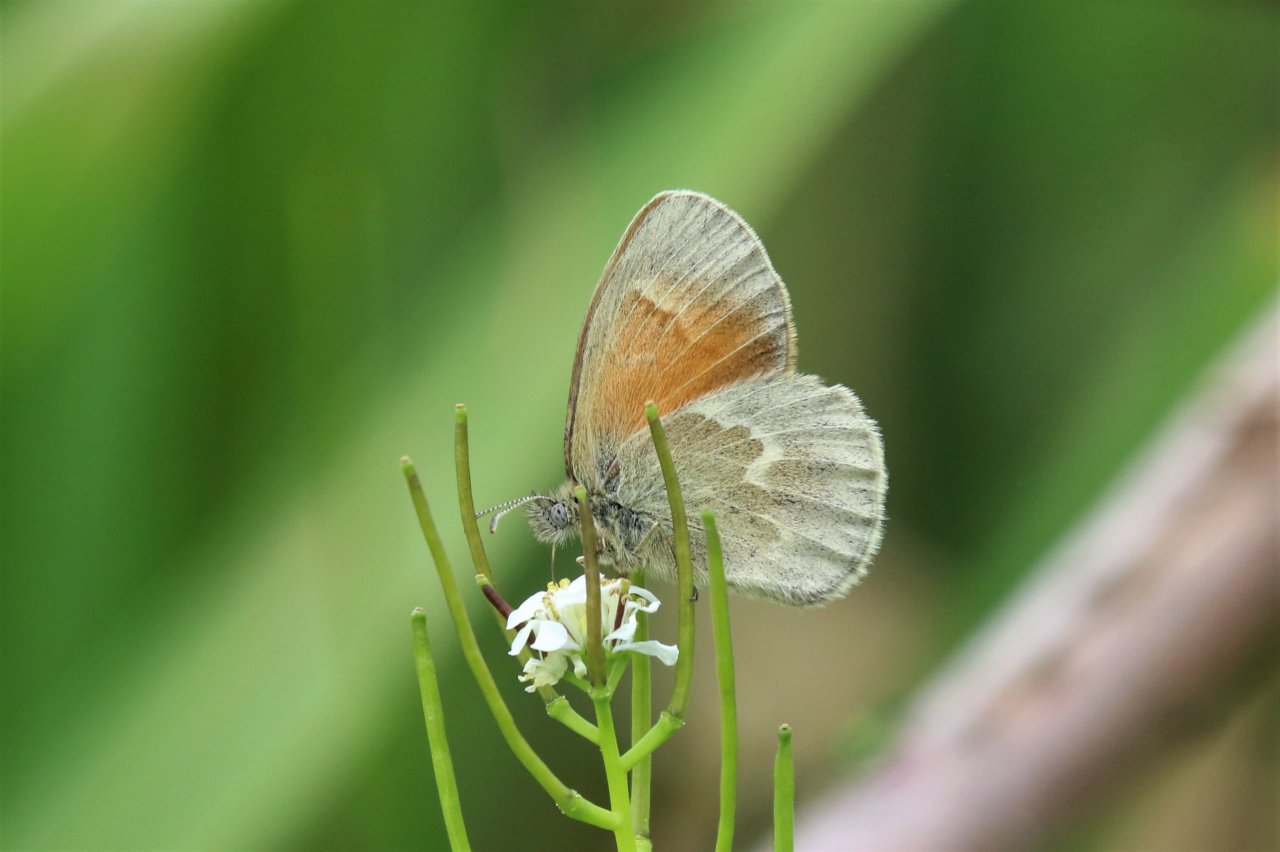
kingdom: Animalia
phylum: Arthropoda
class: Insecta
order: Lepidoptera
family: Nymphalidae
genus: Coenonympha
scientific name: Coenonympha tullia
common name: Large Heath
